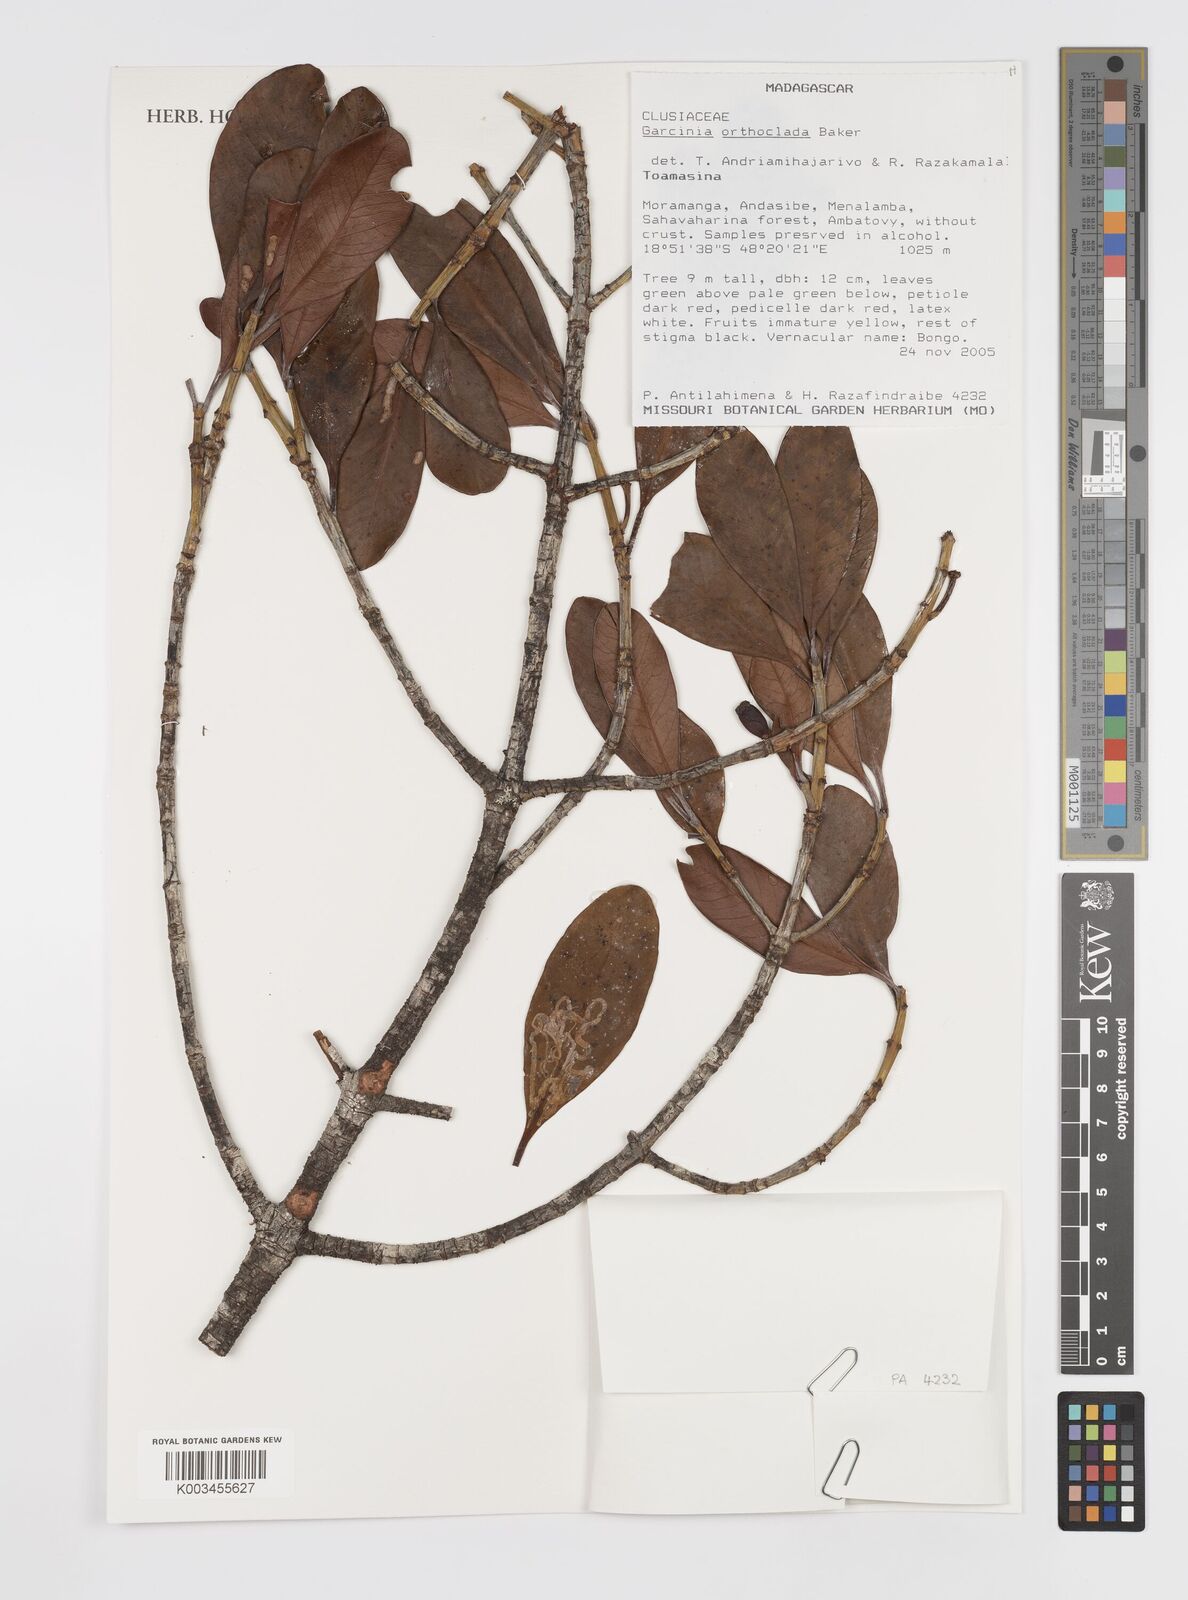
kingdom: Plantae
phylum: Tracheophyta
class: Magnoliopsida
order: Malpighiales
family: Clusiaceae
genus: Garcinia
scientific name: Garcinia orthoclada
